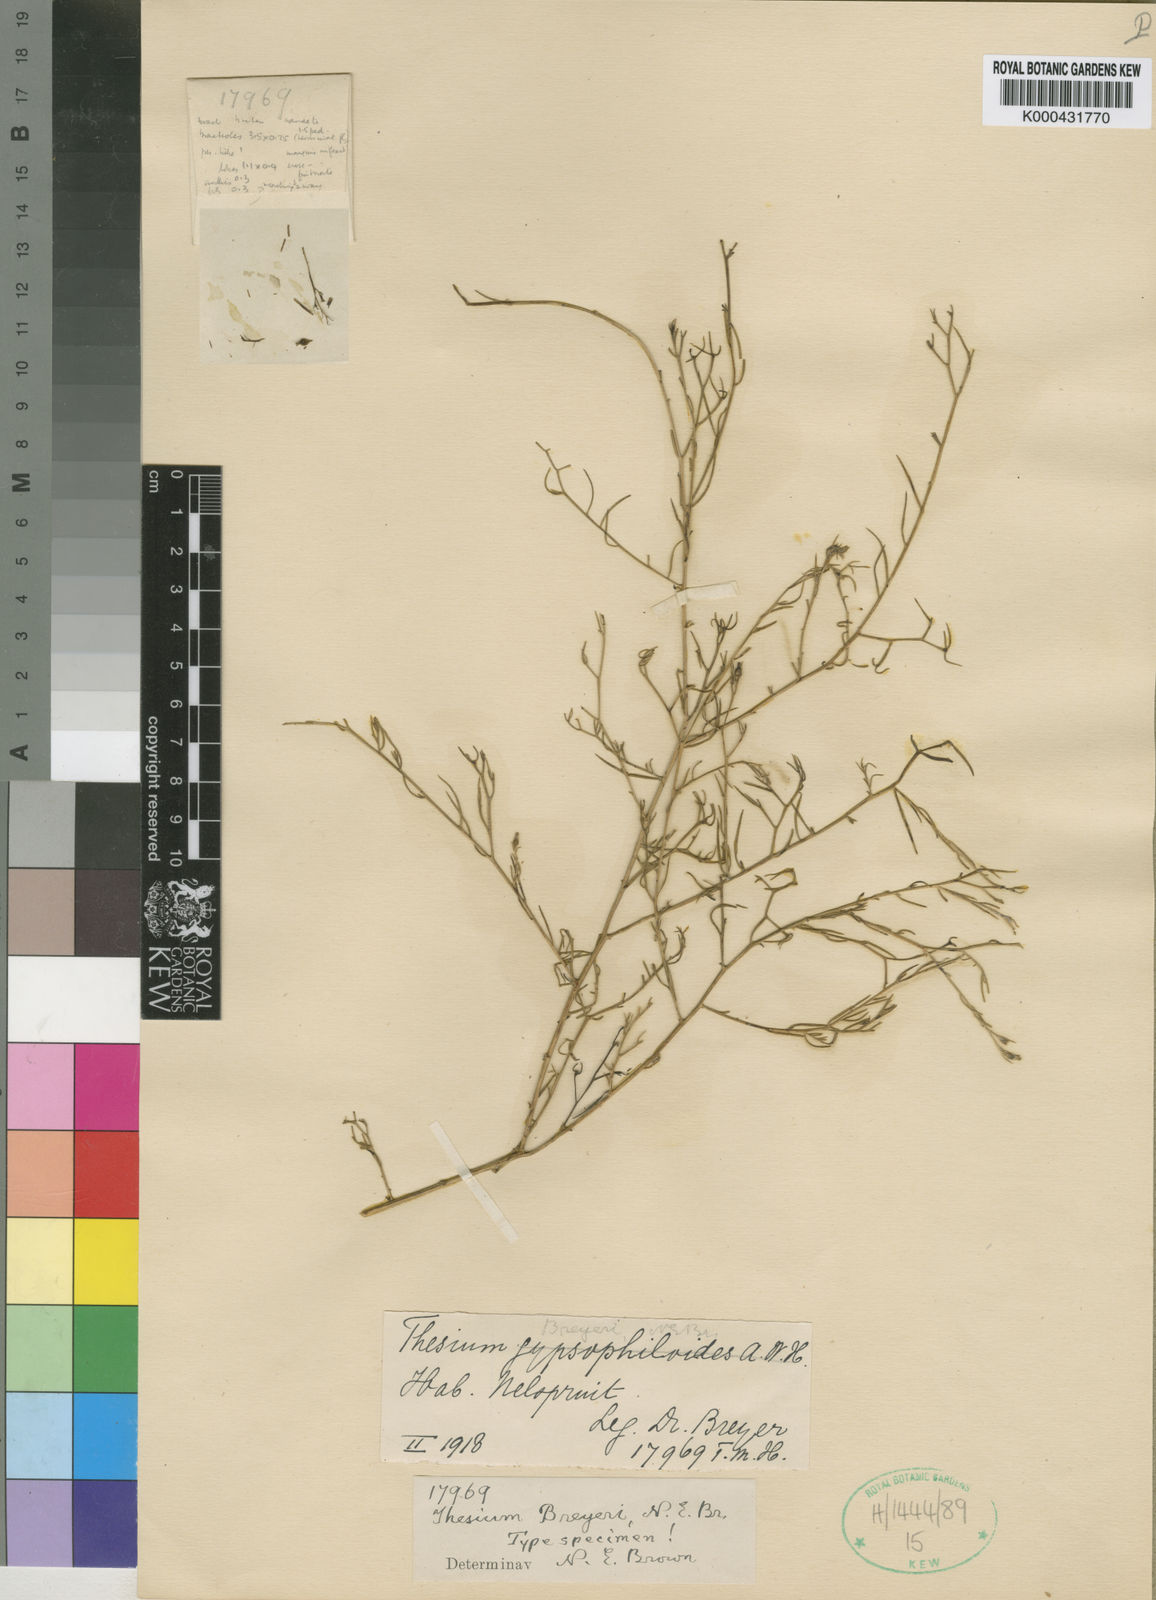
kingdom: Plantae
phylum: Tracheophyta
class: Magnoliopsida
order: Santalales
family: Thesiaceae
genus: Thesium
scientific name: Thesium breyeri
